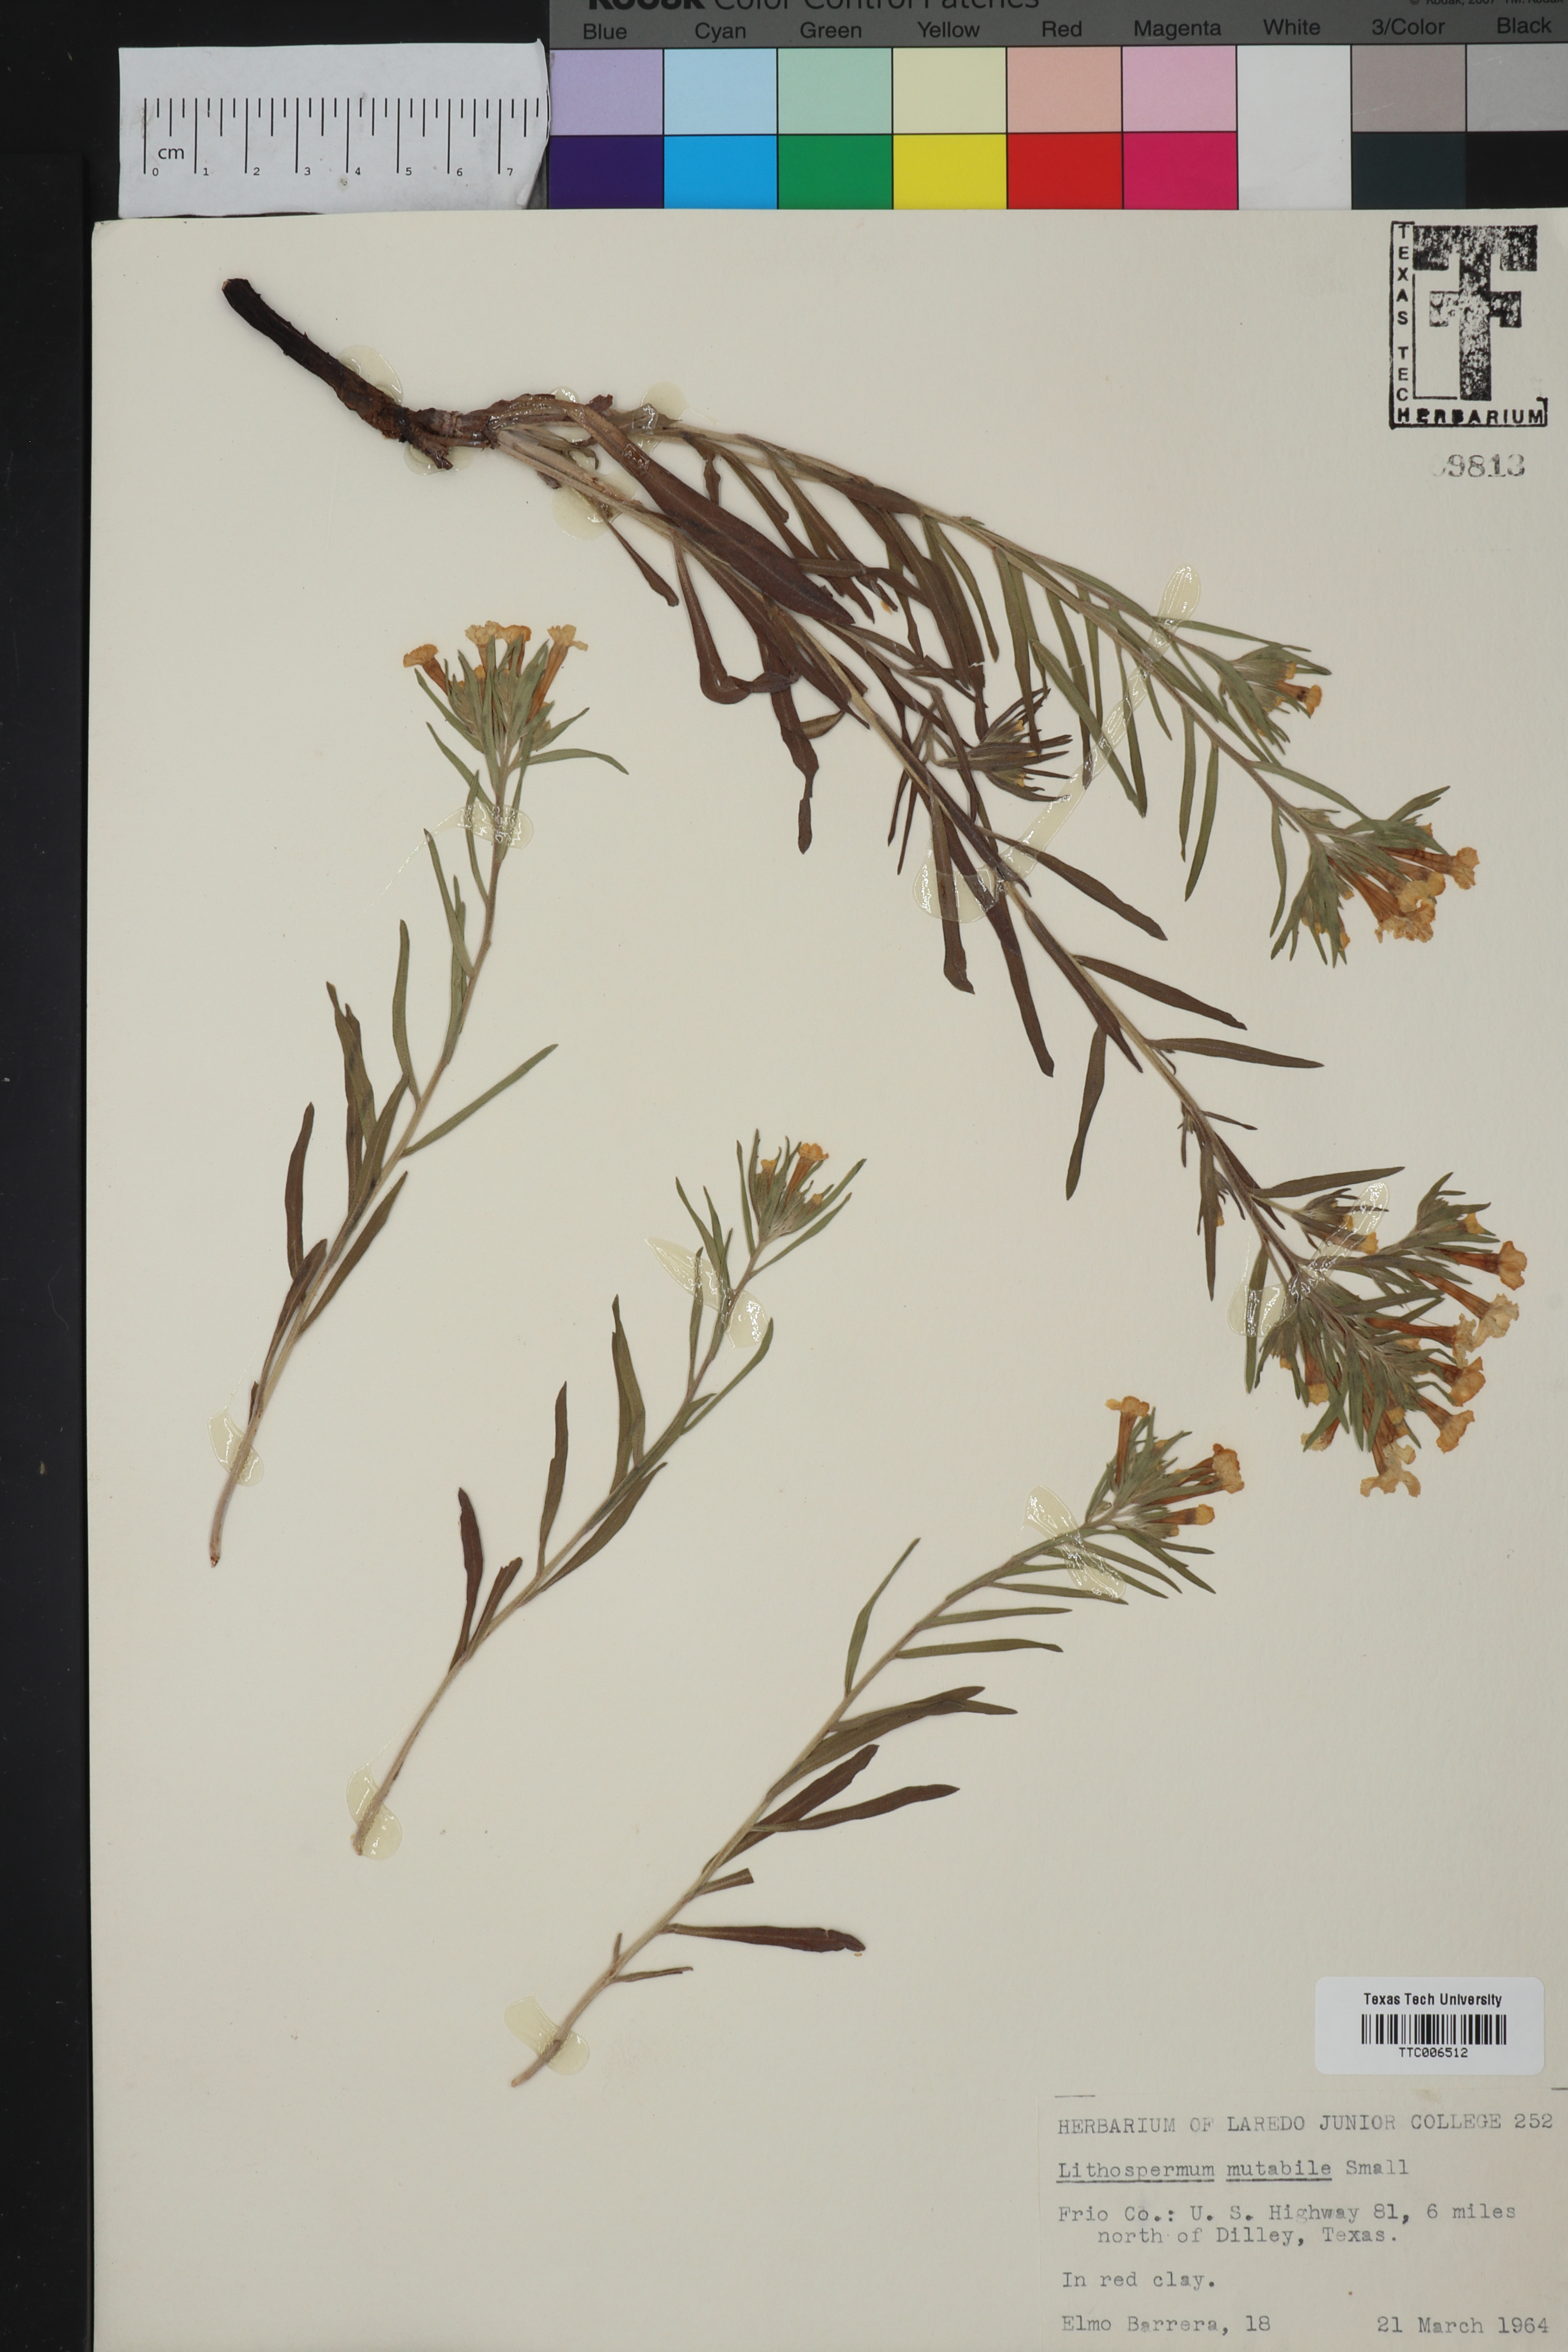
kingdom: Plantae
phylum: Tracheophyta
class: Magnoliopsida
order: Boraginales
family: Boraginaceae
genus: Lithospermum
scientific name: Lithospermum
